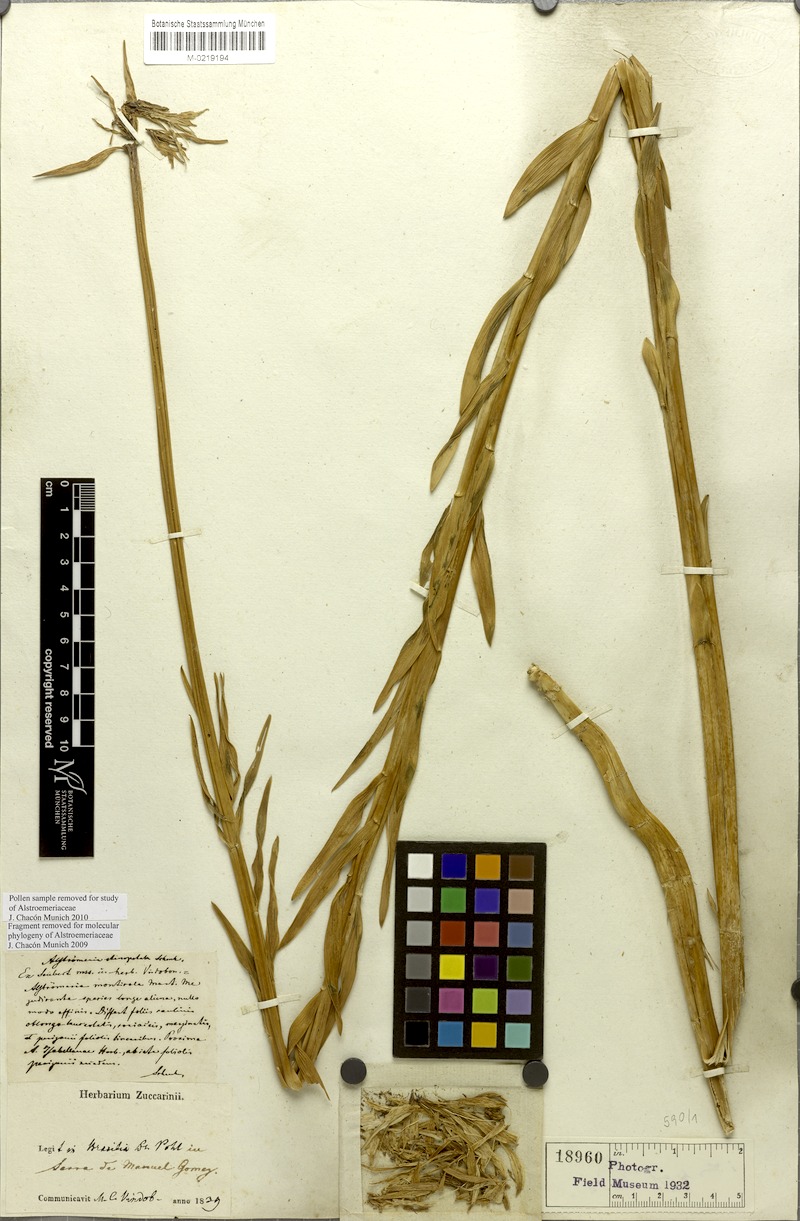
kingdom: Plantae
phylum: Tracheophyta
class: Liliopsida
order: Liliales
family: Alstroemeriaceae
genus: Alstroemeria
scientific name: Alstroemeria stenopetala
